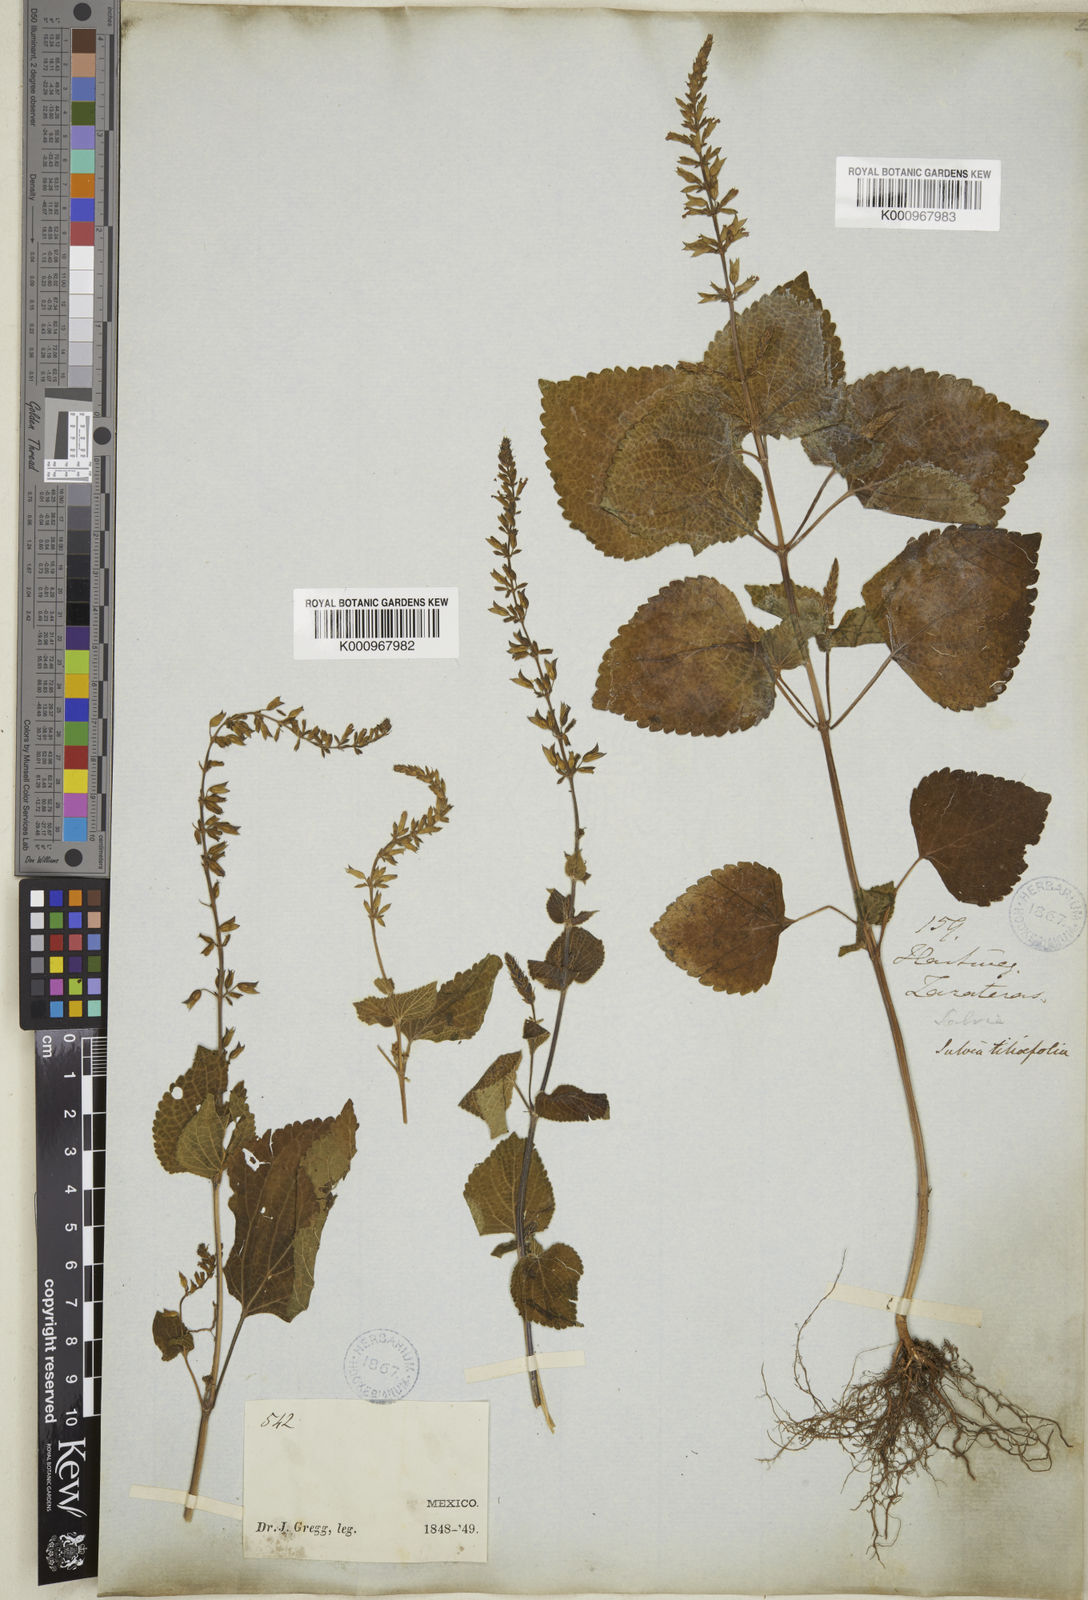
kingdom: Plantae
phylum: Tracheophyta
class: Magnoliopsida
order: Lamiales
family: Lamiaceae
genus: Salvia
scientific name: Salvia tiliifolia
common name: Lindenleaf sage
